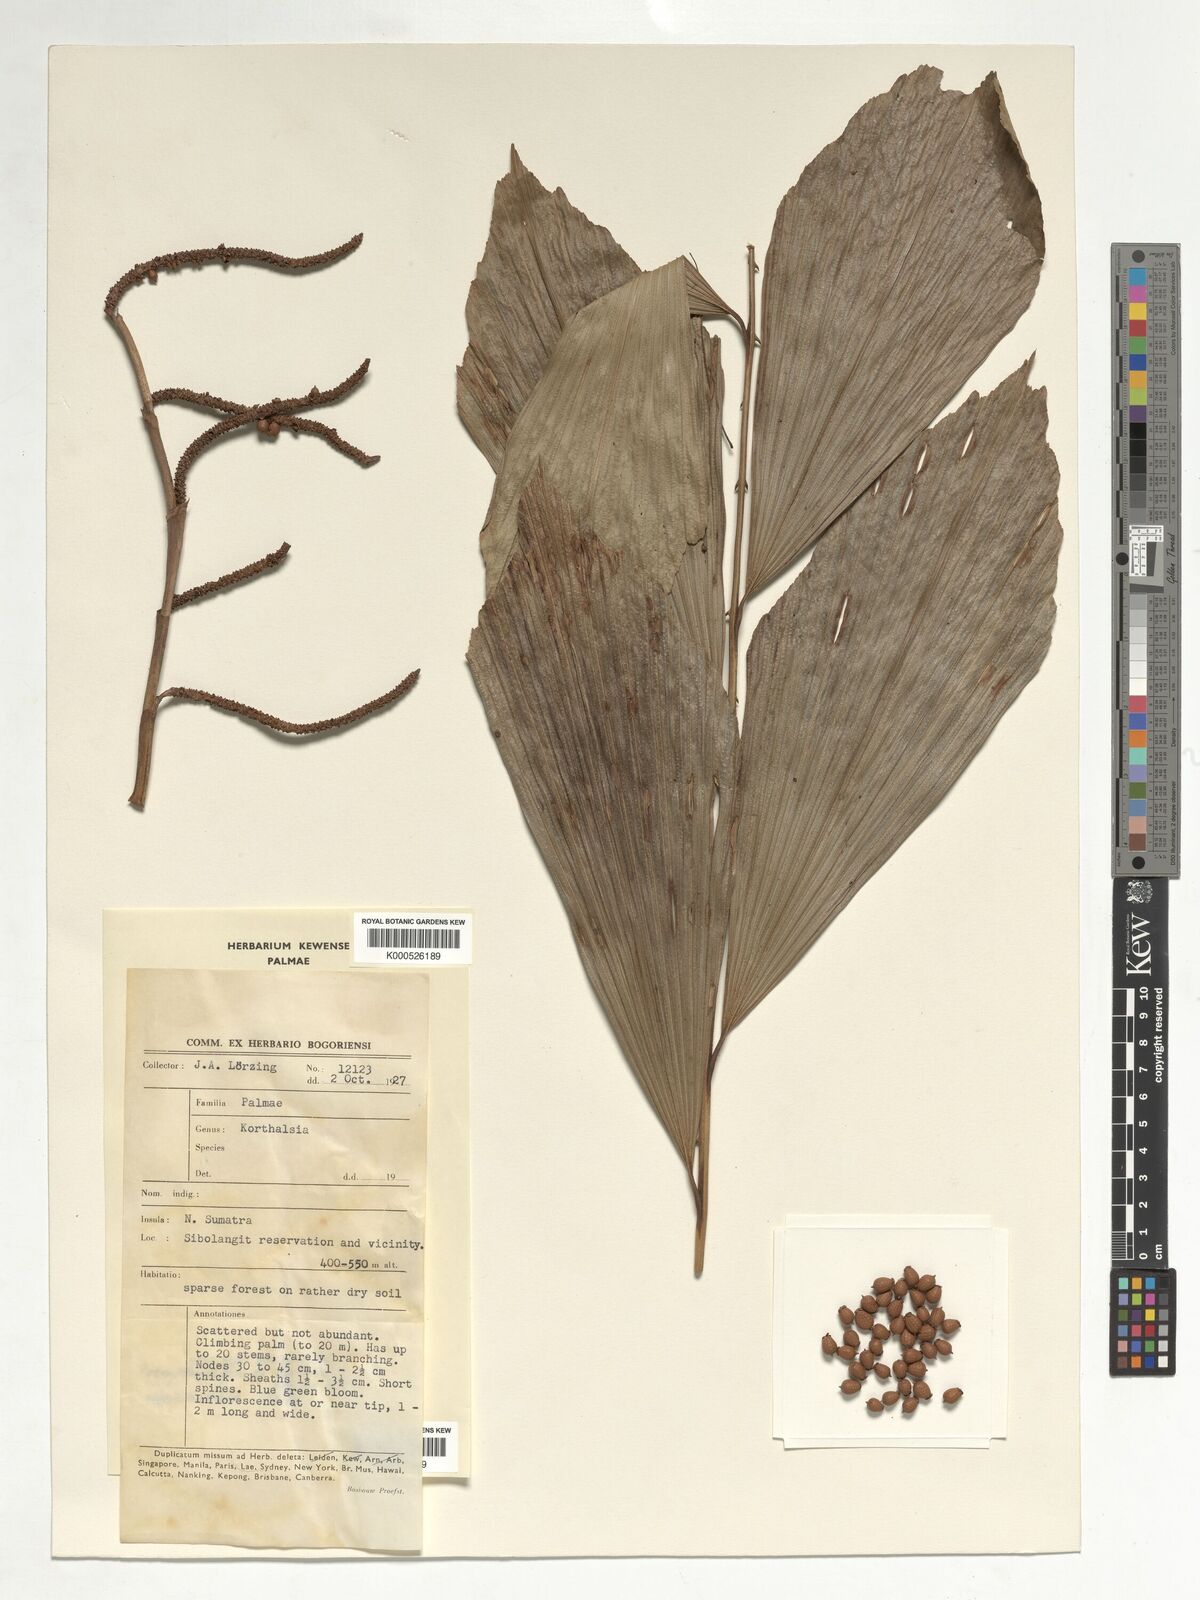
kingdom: Plantae
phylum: Tracheophyta
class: Liliopsida
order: Arecales
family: Arecaceae
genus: Korthalsia
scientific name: Korthalsia rigida
